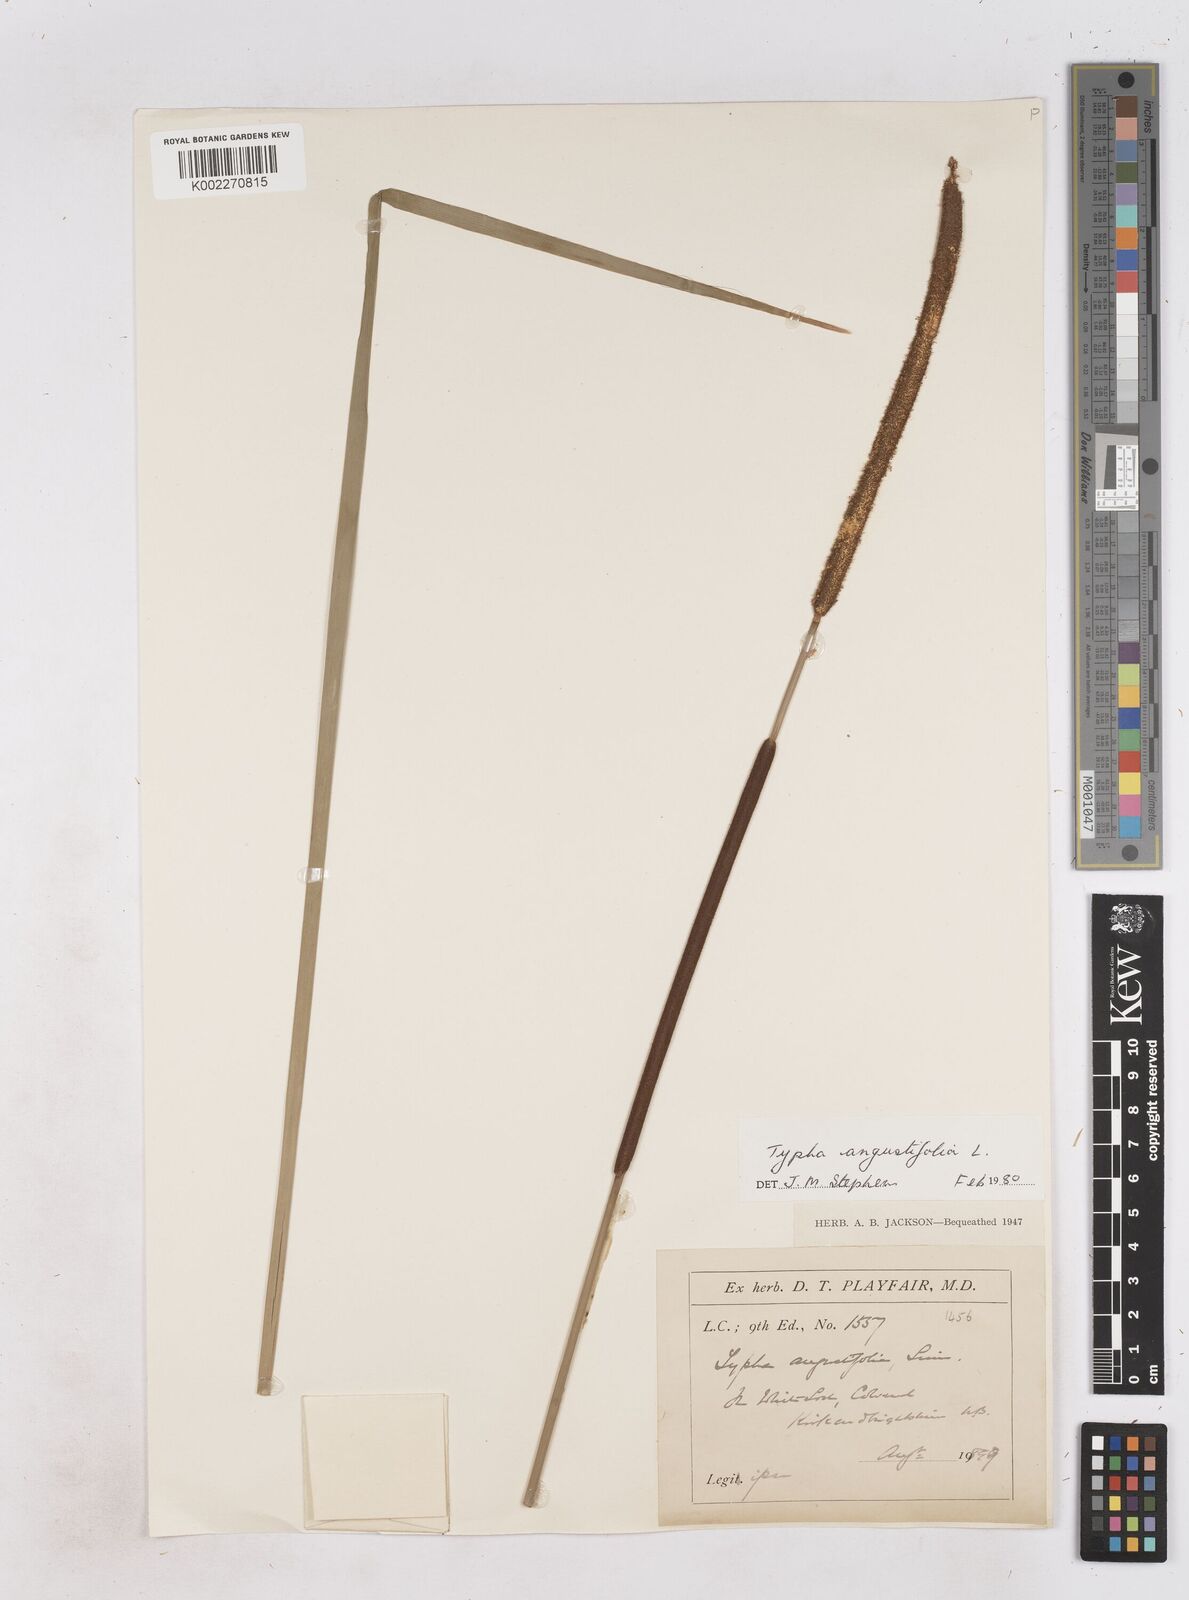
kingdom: Plantae
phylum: Tracheophyta
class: Liliopsida
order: Poales
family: Typhaceae
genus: Typha
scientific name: Typha angustifolia
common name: Lesser bulrush
